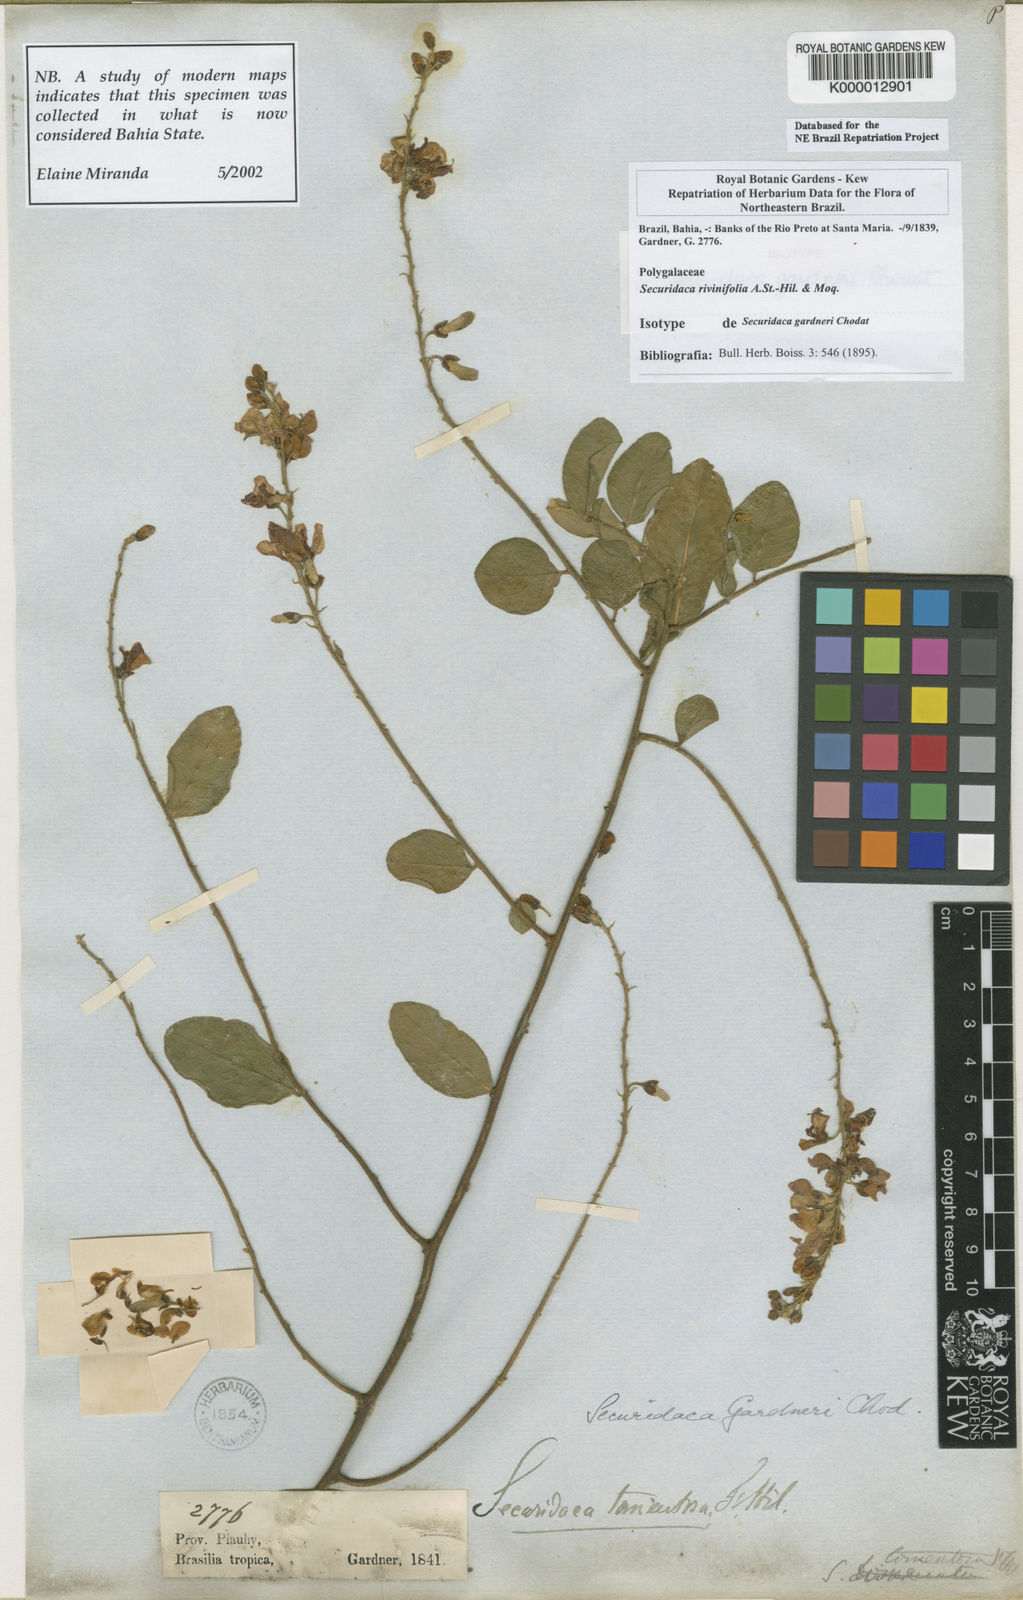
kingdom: Plantae
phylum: Tracheophyta
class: Magnoliopsida
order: Fabales
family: Polygalaceae
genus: Securidaca
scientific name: Securidaca rivinifolia
